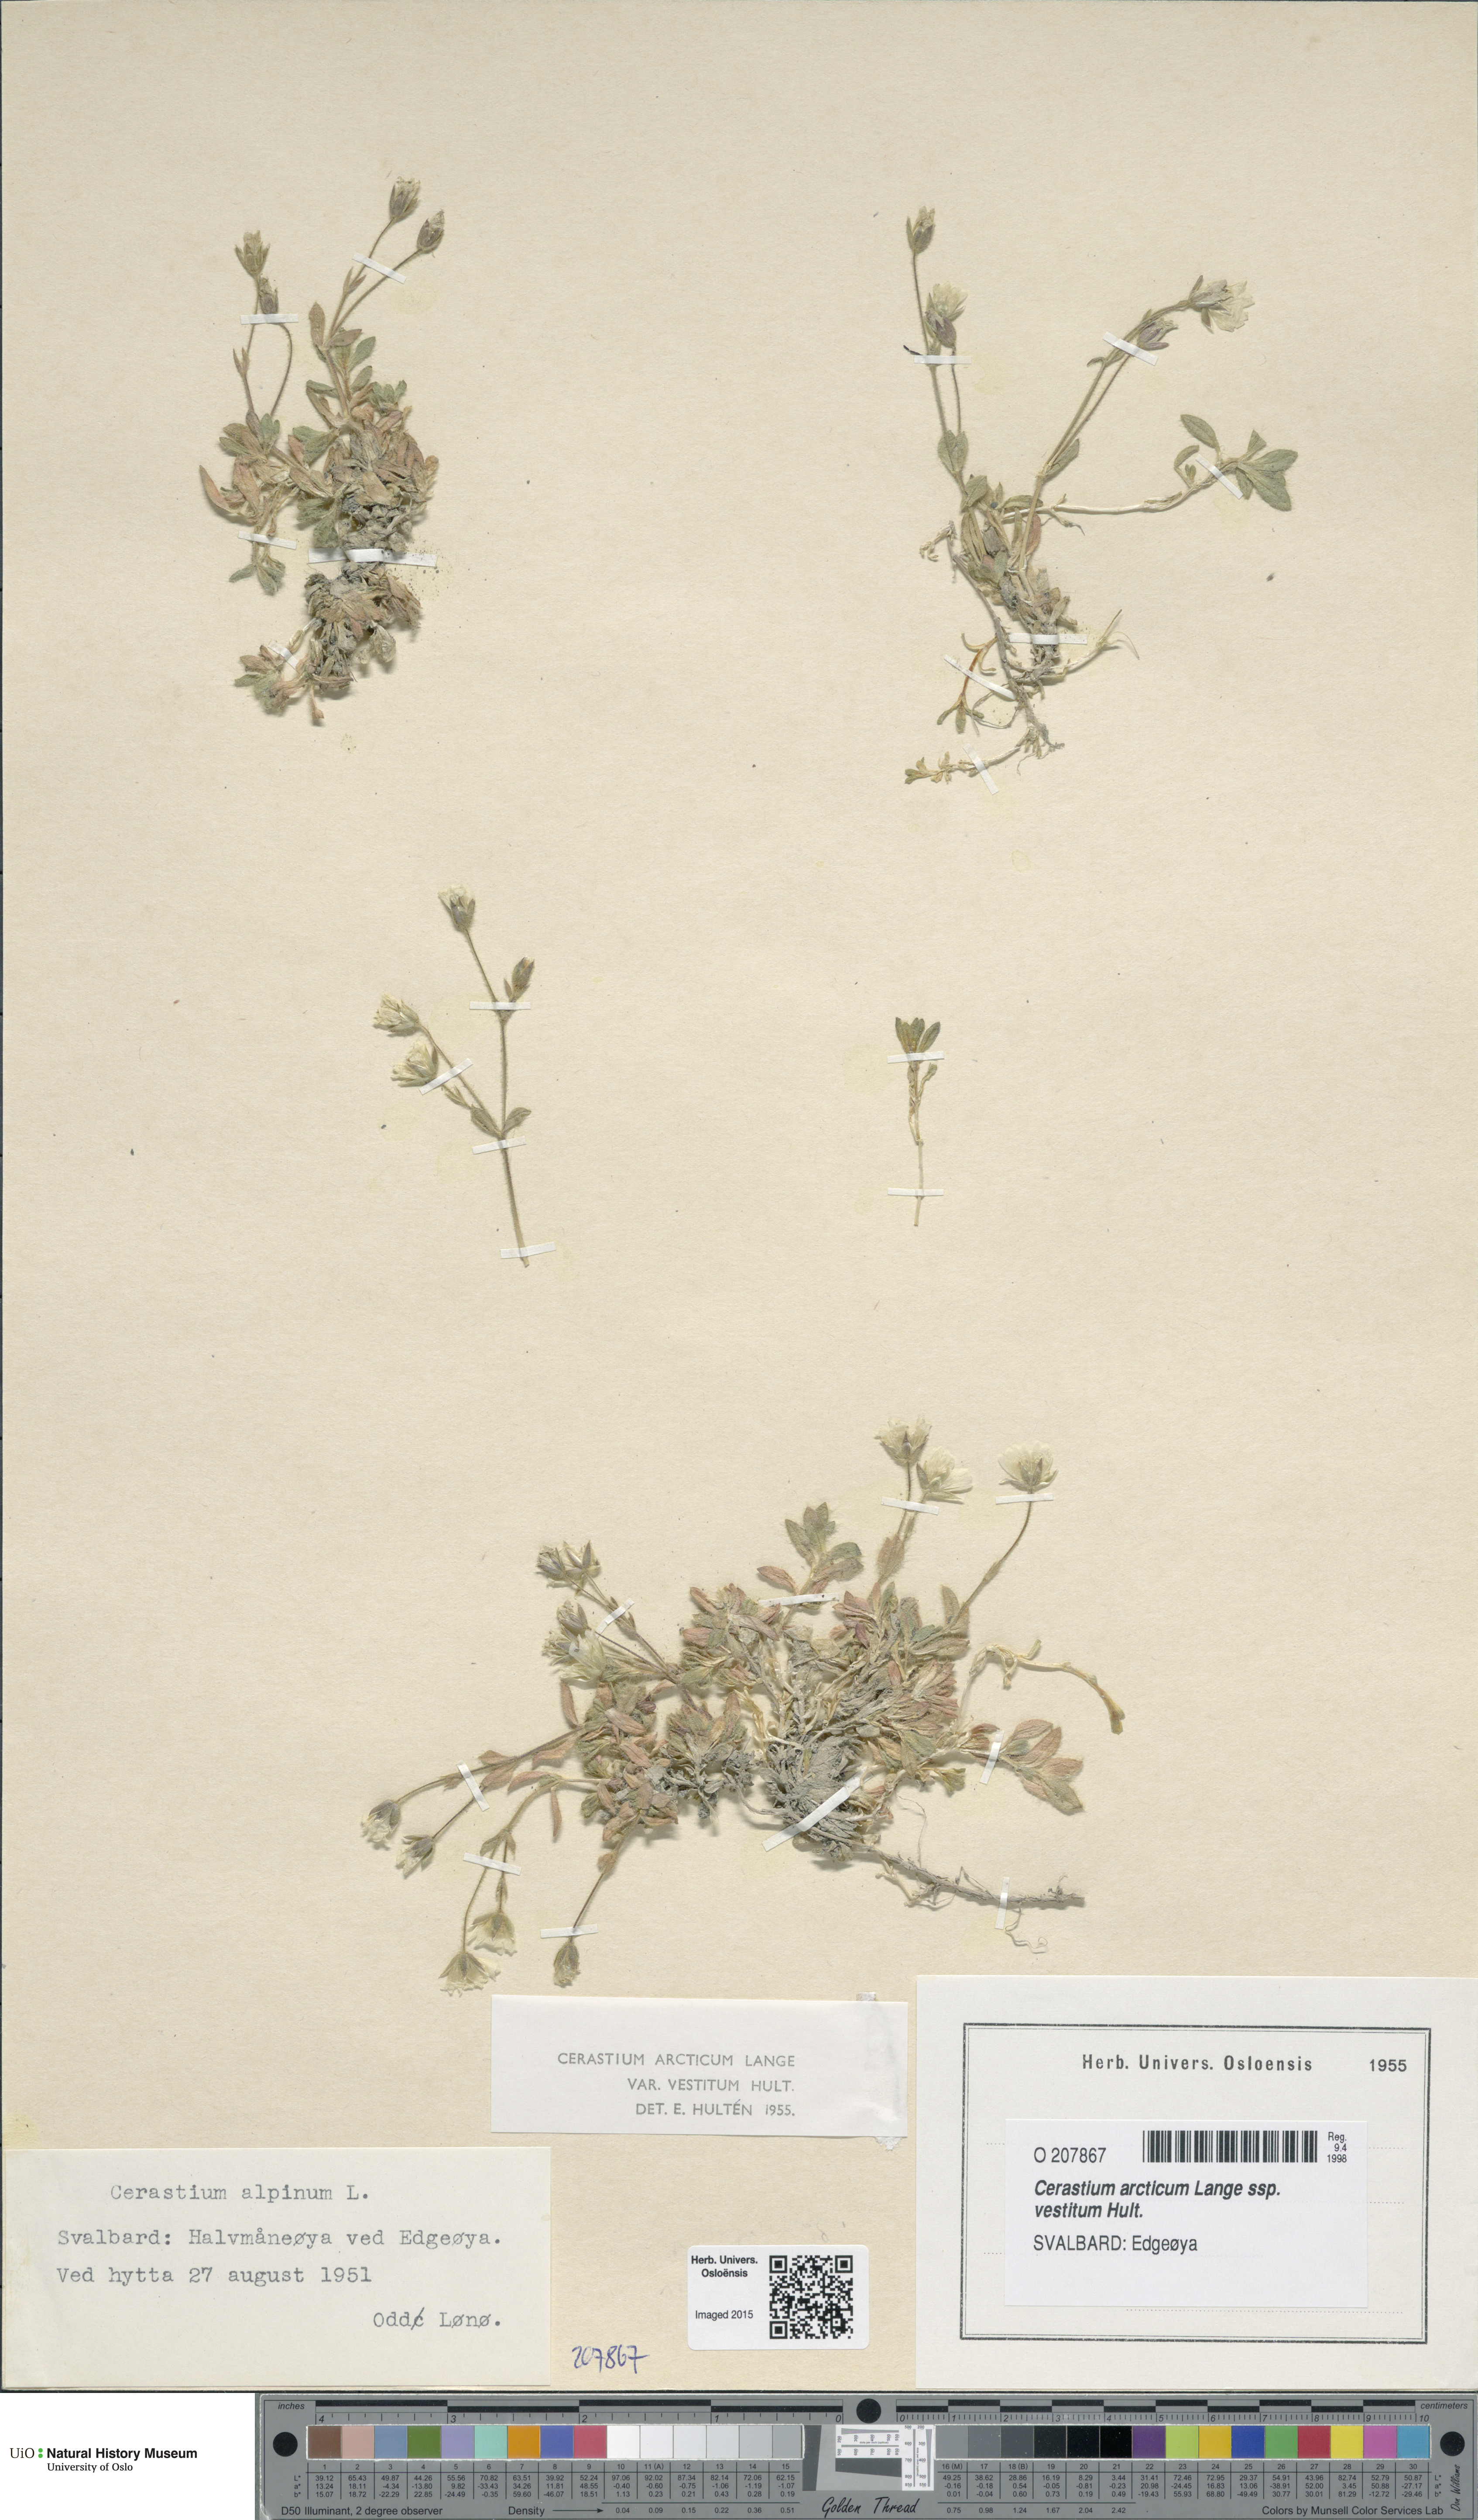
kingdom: Plantae
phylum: Tracheophyta
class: Magnoliopsida
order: Caryophyllales
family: Caryophyllaceae
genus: Cerastium
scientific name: Cerastium arcticum
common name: Arctic mouse-ear
